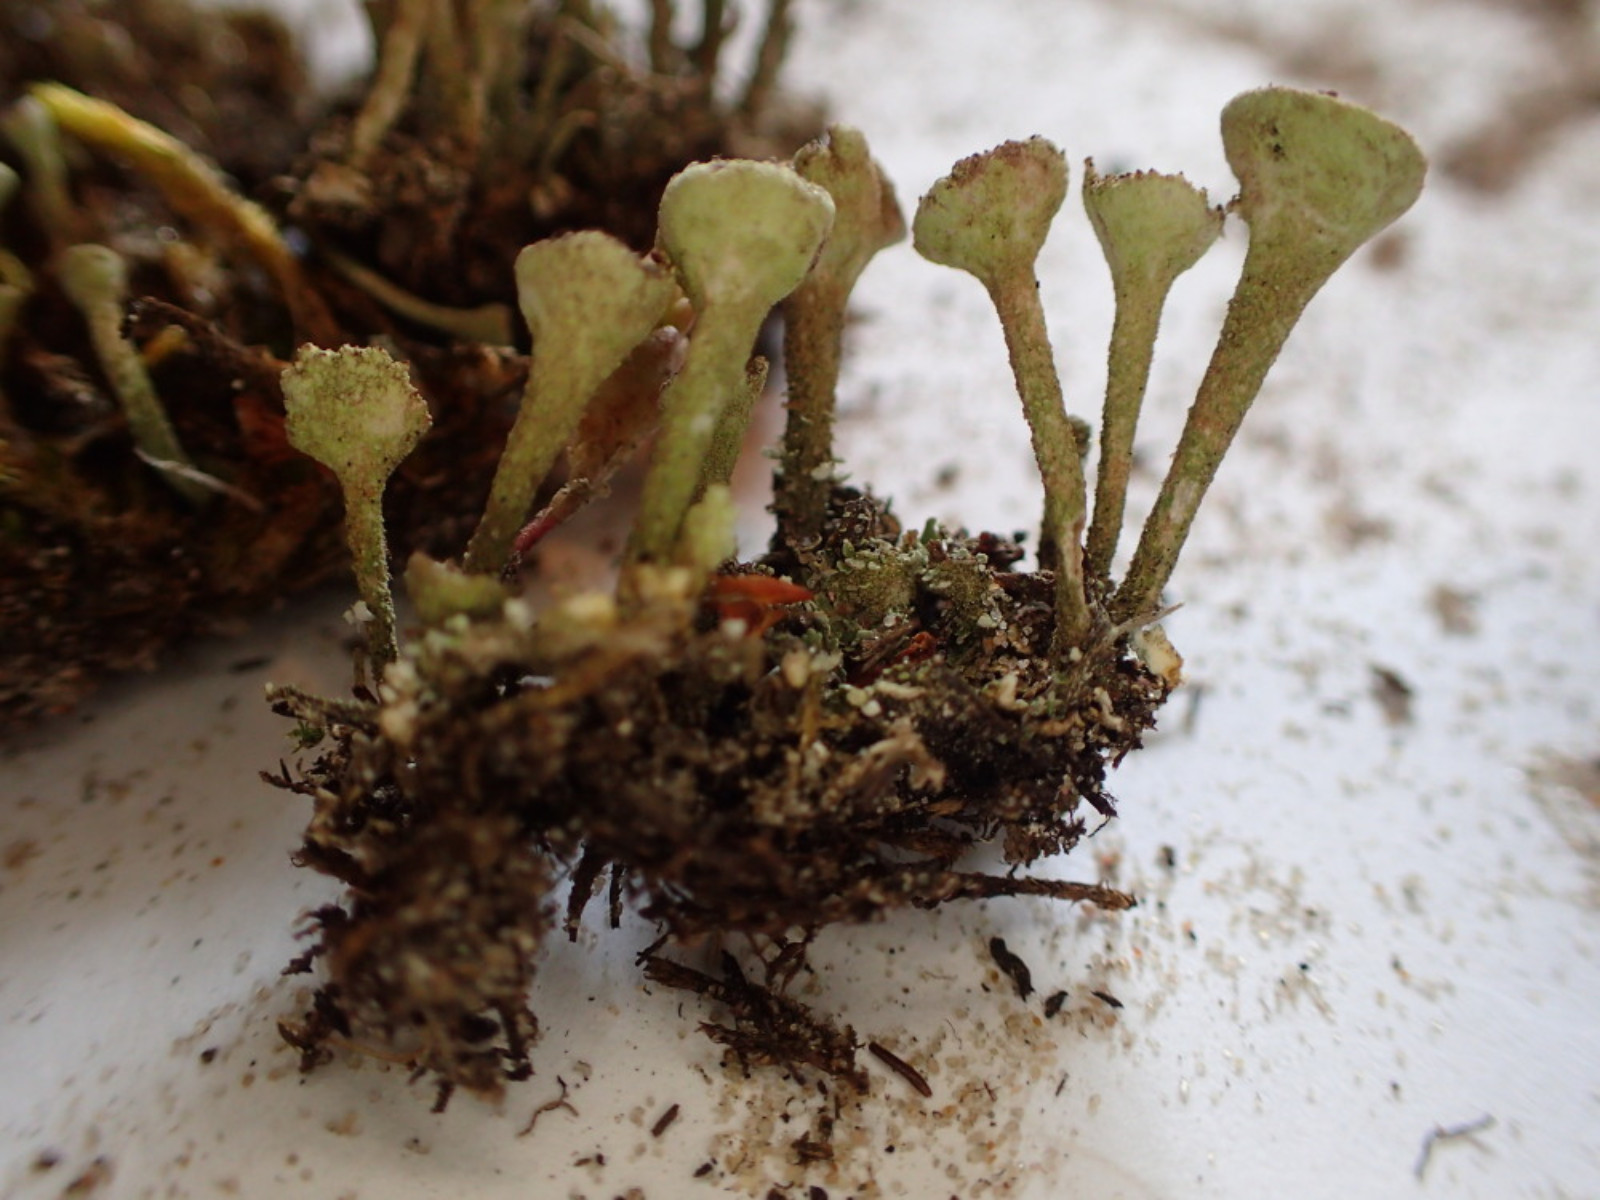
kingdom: Fungi
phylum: Ascomycota
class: Lecanoromycetes
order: Lecanorales
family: Cladoniaceae
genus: Cladonia
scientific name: Cladonia merochlorophaea
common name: mørk bægerlav
